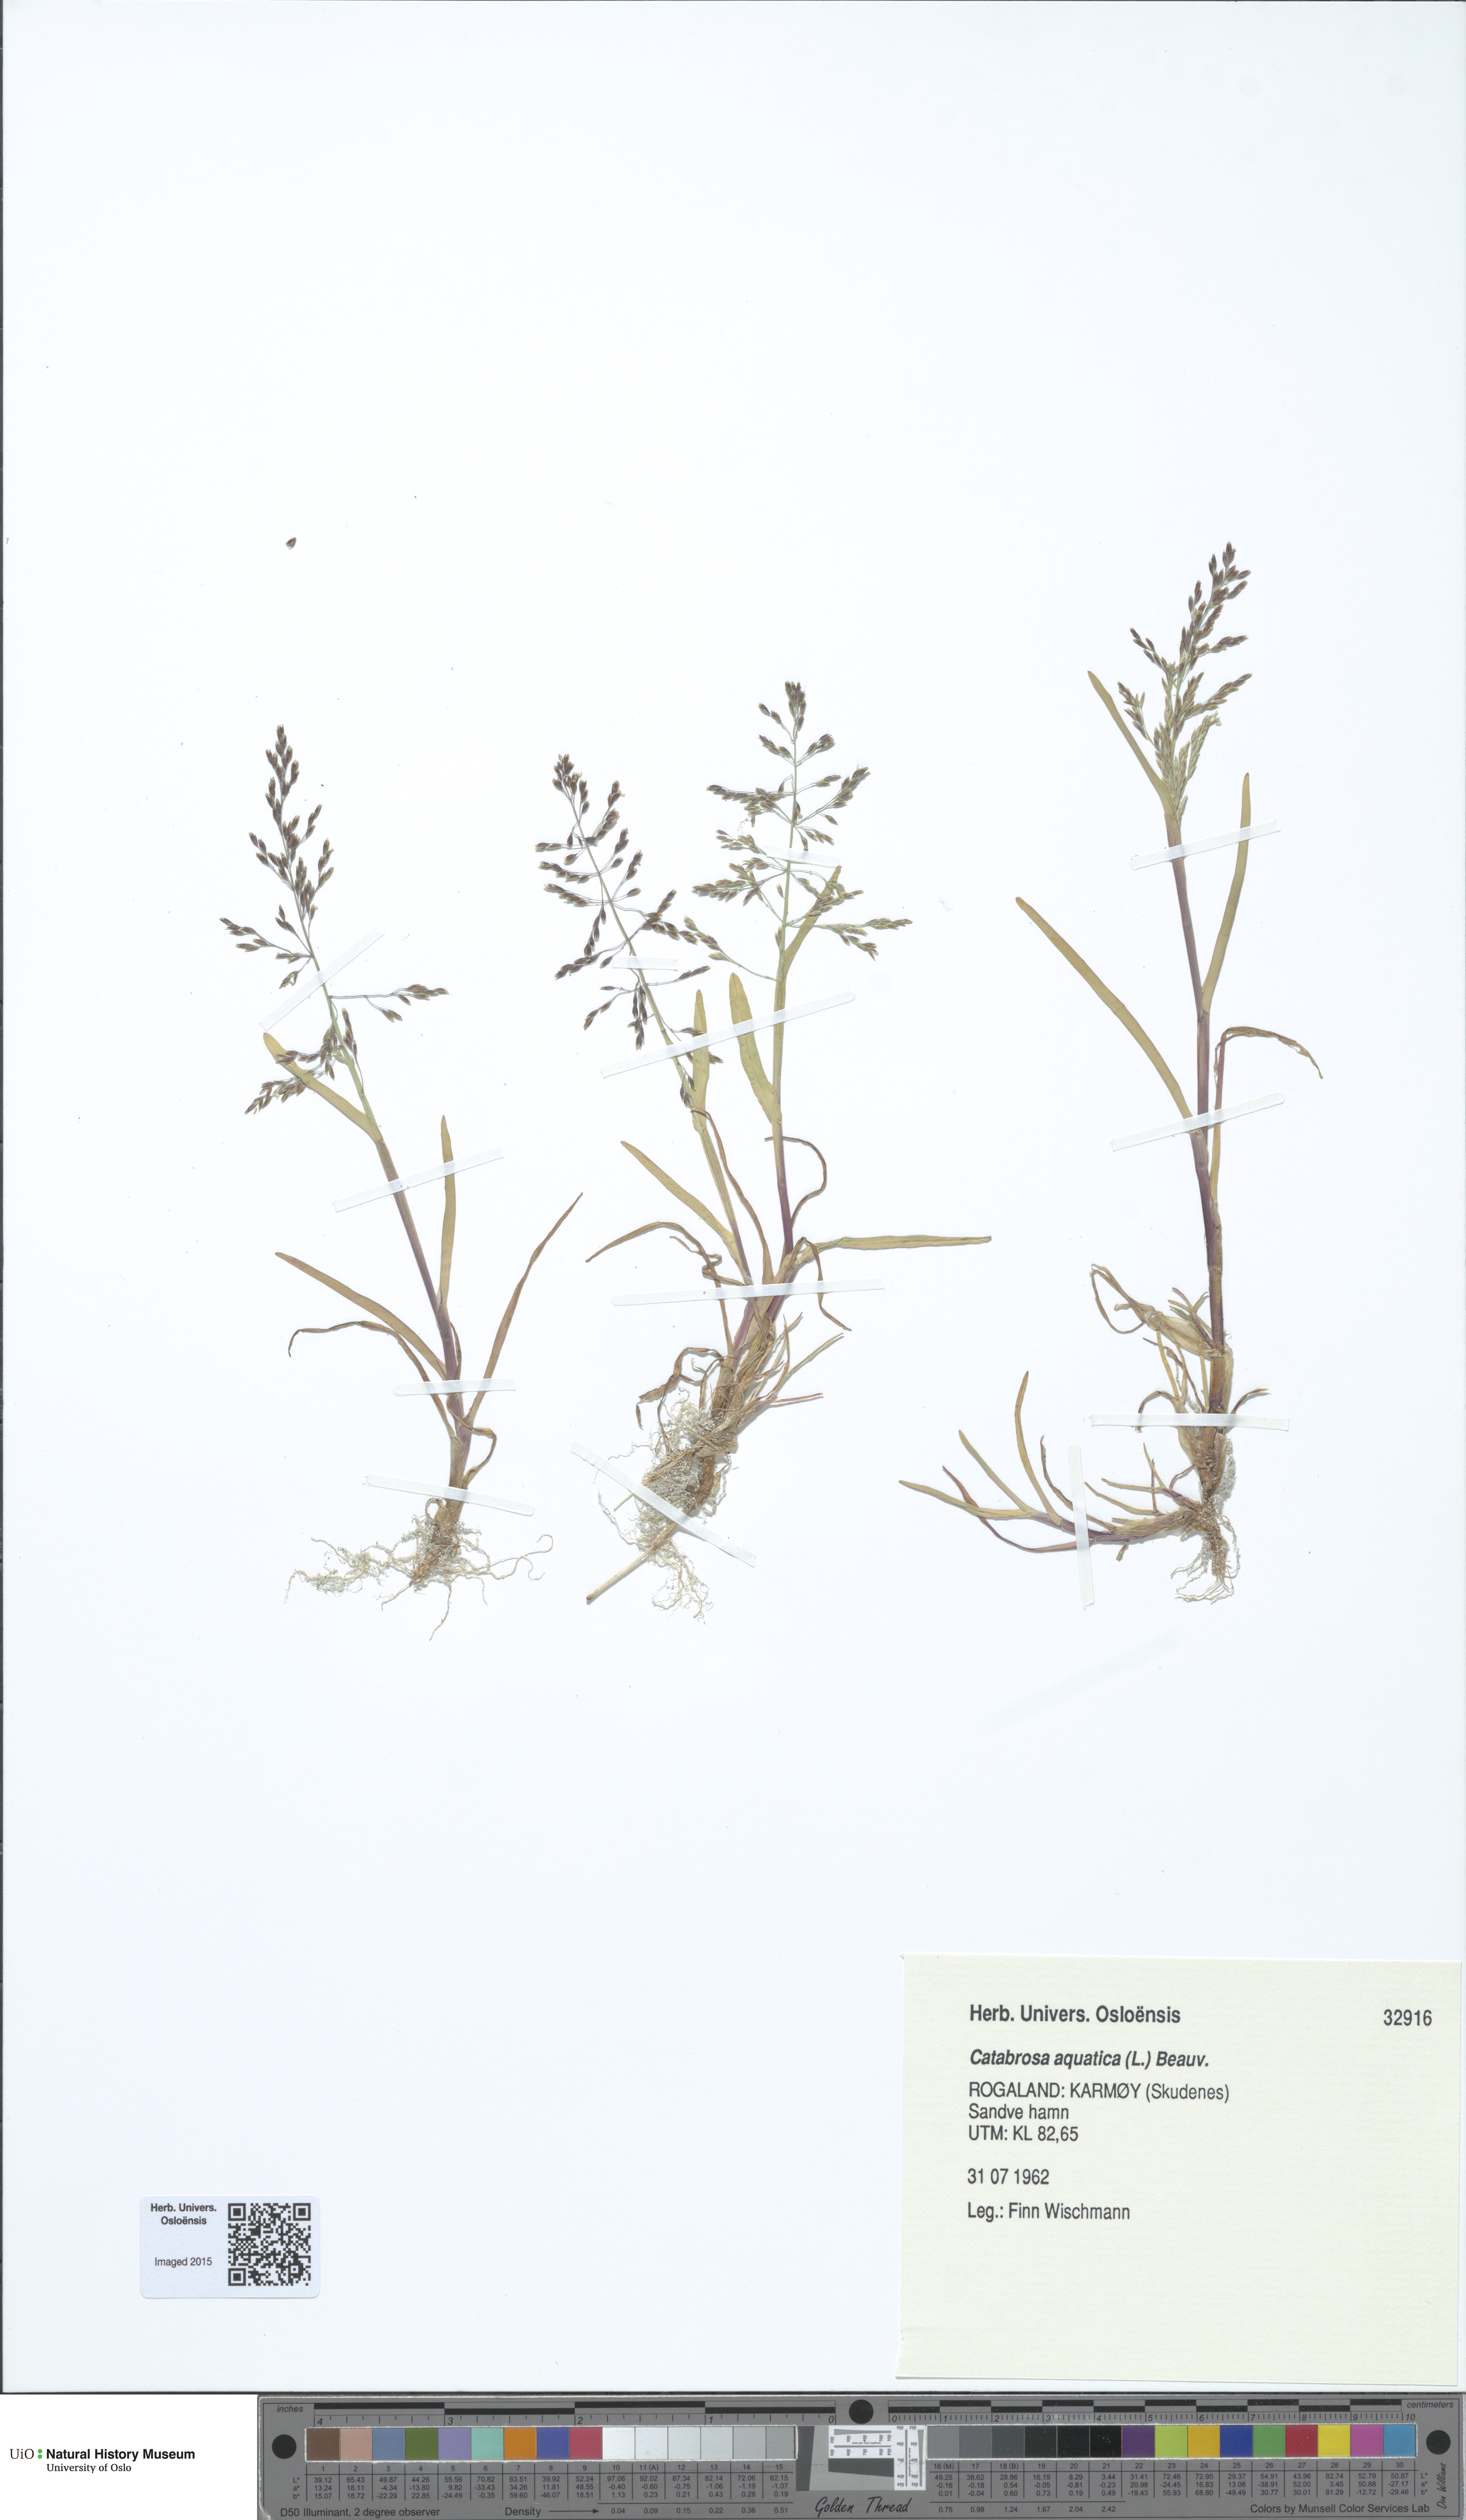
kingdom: Plantae
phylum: Tracheophyta
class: Liliopsida
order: Poales
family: Poaceae
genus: Catabrosa
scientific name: Catabrosa aquatica
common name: Whorl-grass
